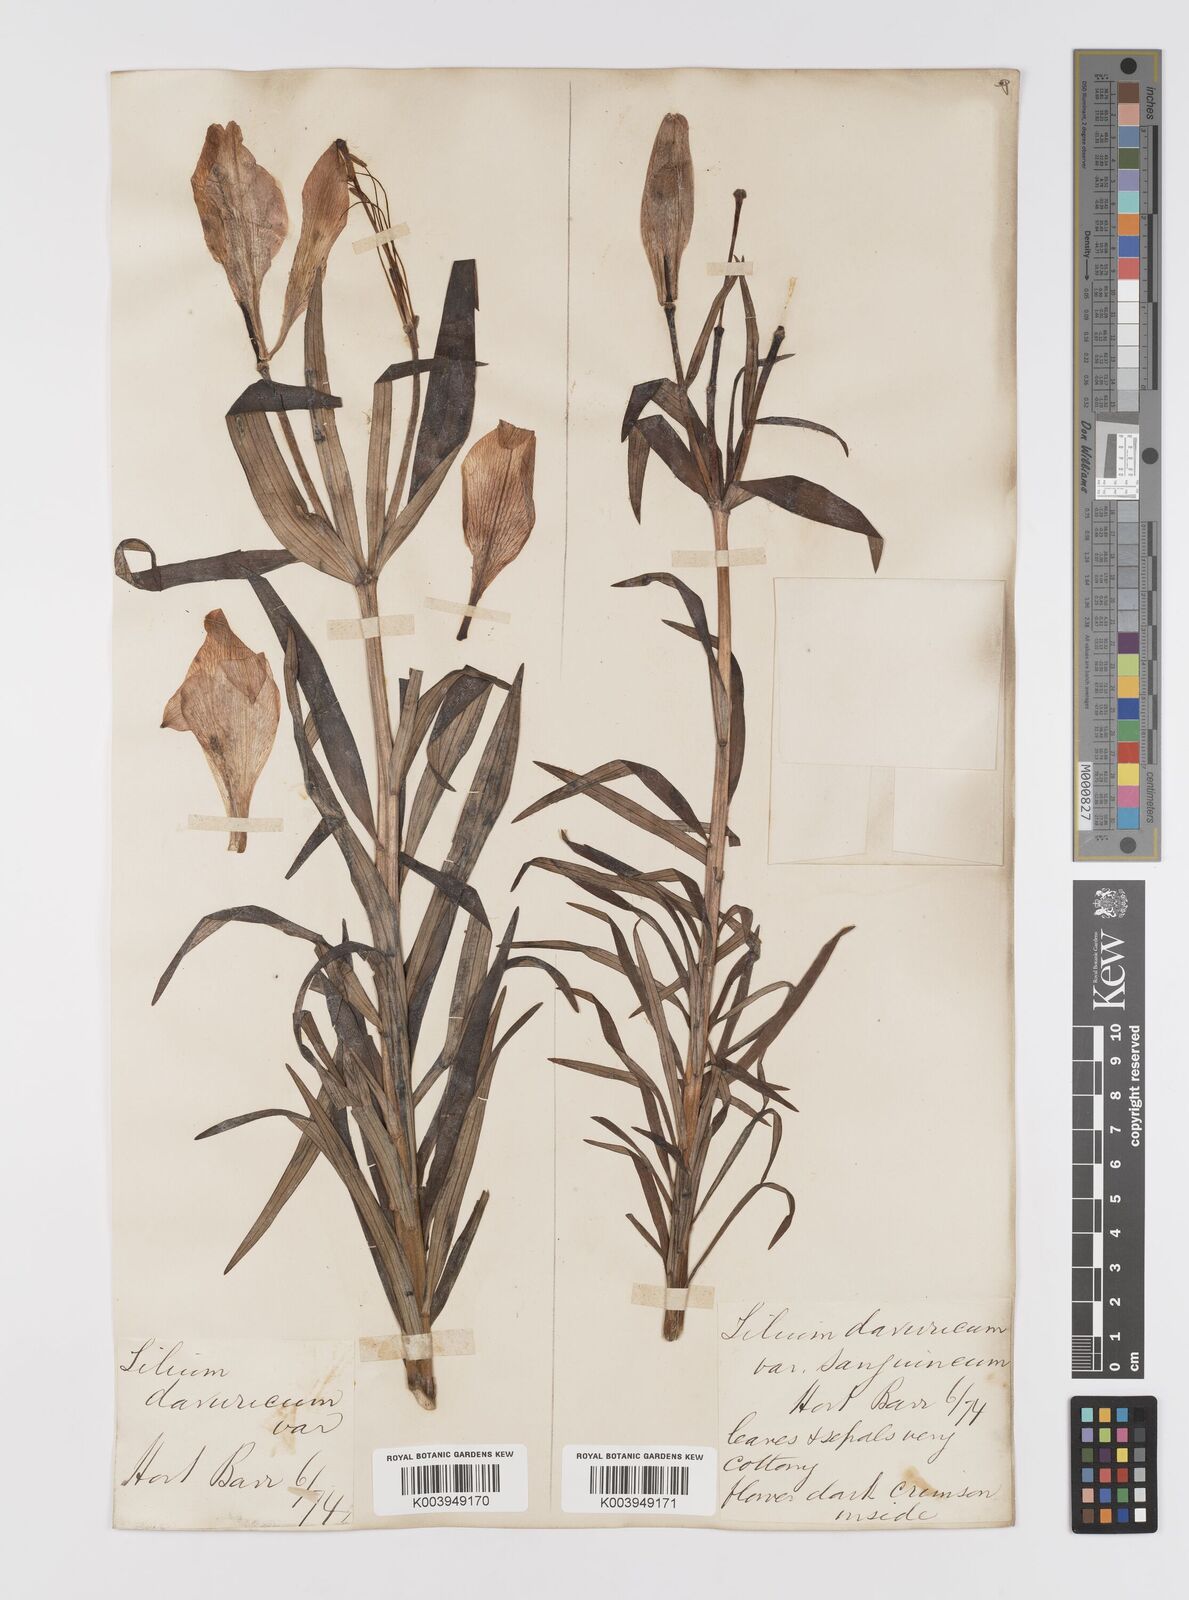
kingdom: Plantae
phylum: Tracheophyta
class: Liliopsida
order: Liliales
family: Liliaceae
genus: Lilium
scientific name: Lilium pensylvanicum
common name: Candlestick lily
